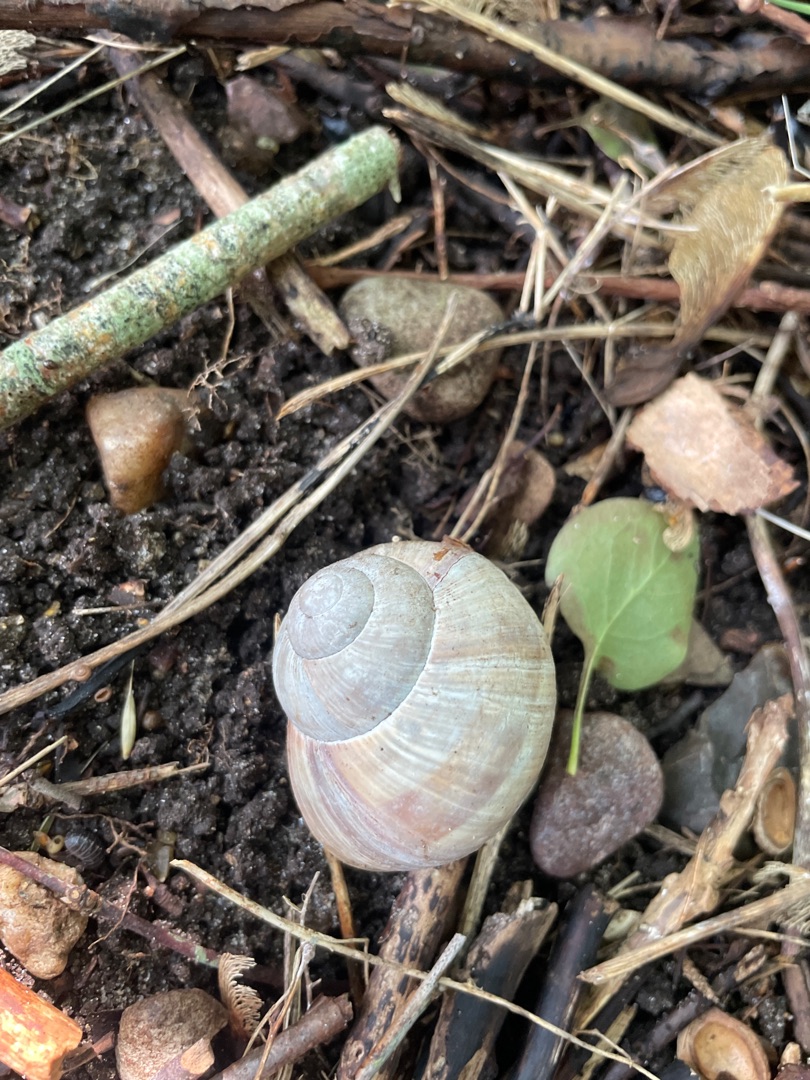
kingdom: Animalia
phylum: Mollusca
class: Gastropoda
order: Stylommatophora
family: Helicidae
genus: Helix
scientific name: Helix pomatia
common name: Vinbjergsnegl
